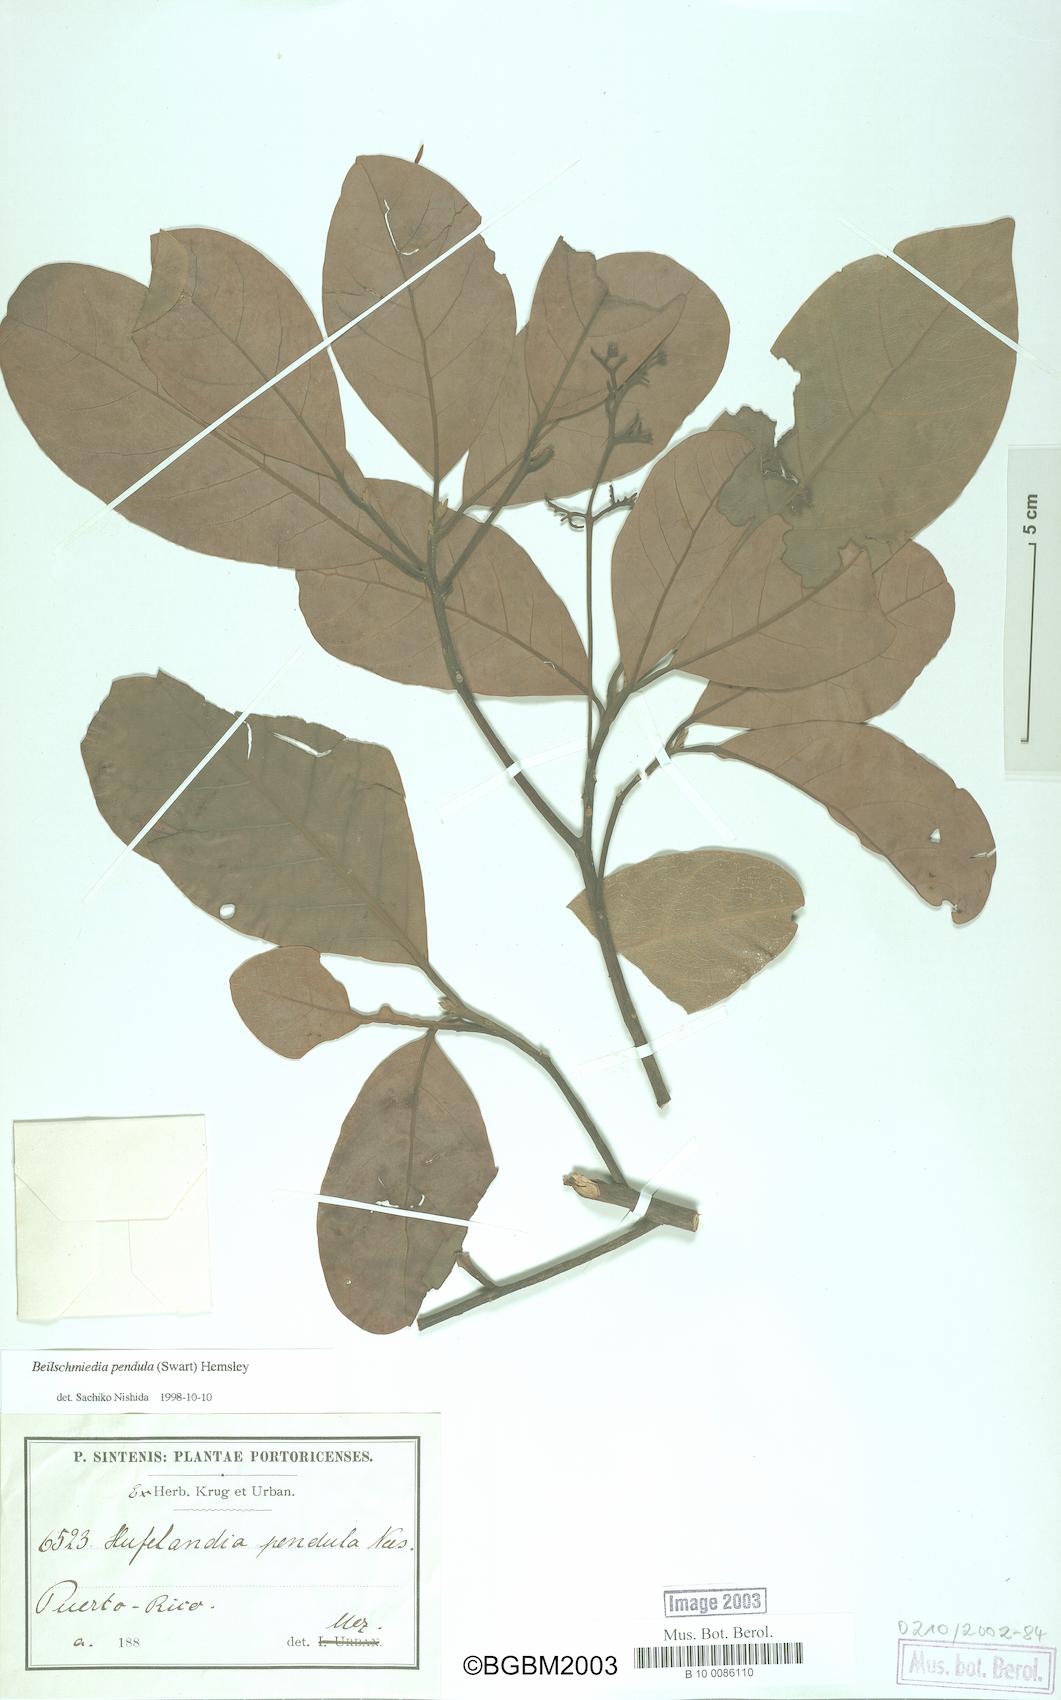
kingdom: Plantae
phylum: Tracheophyta
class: Magnoliopsida
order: Laurales
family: Lauraceae
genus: Beilschmiedia
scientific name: Beilschmiedia pendula
